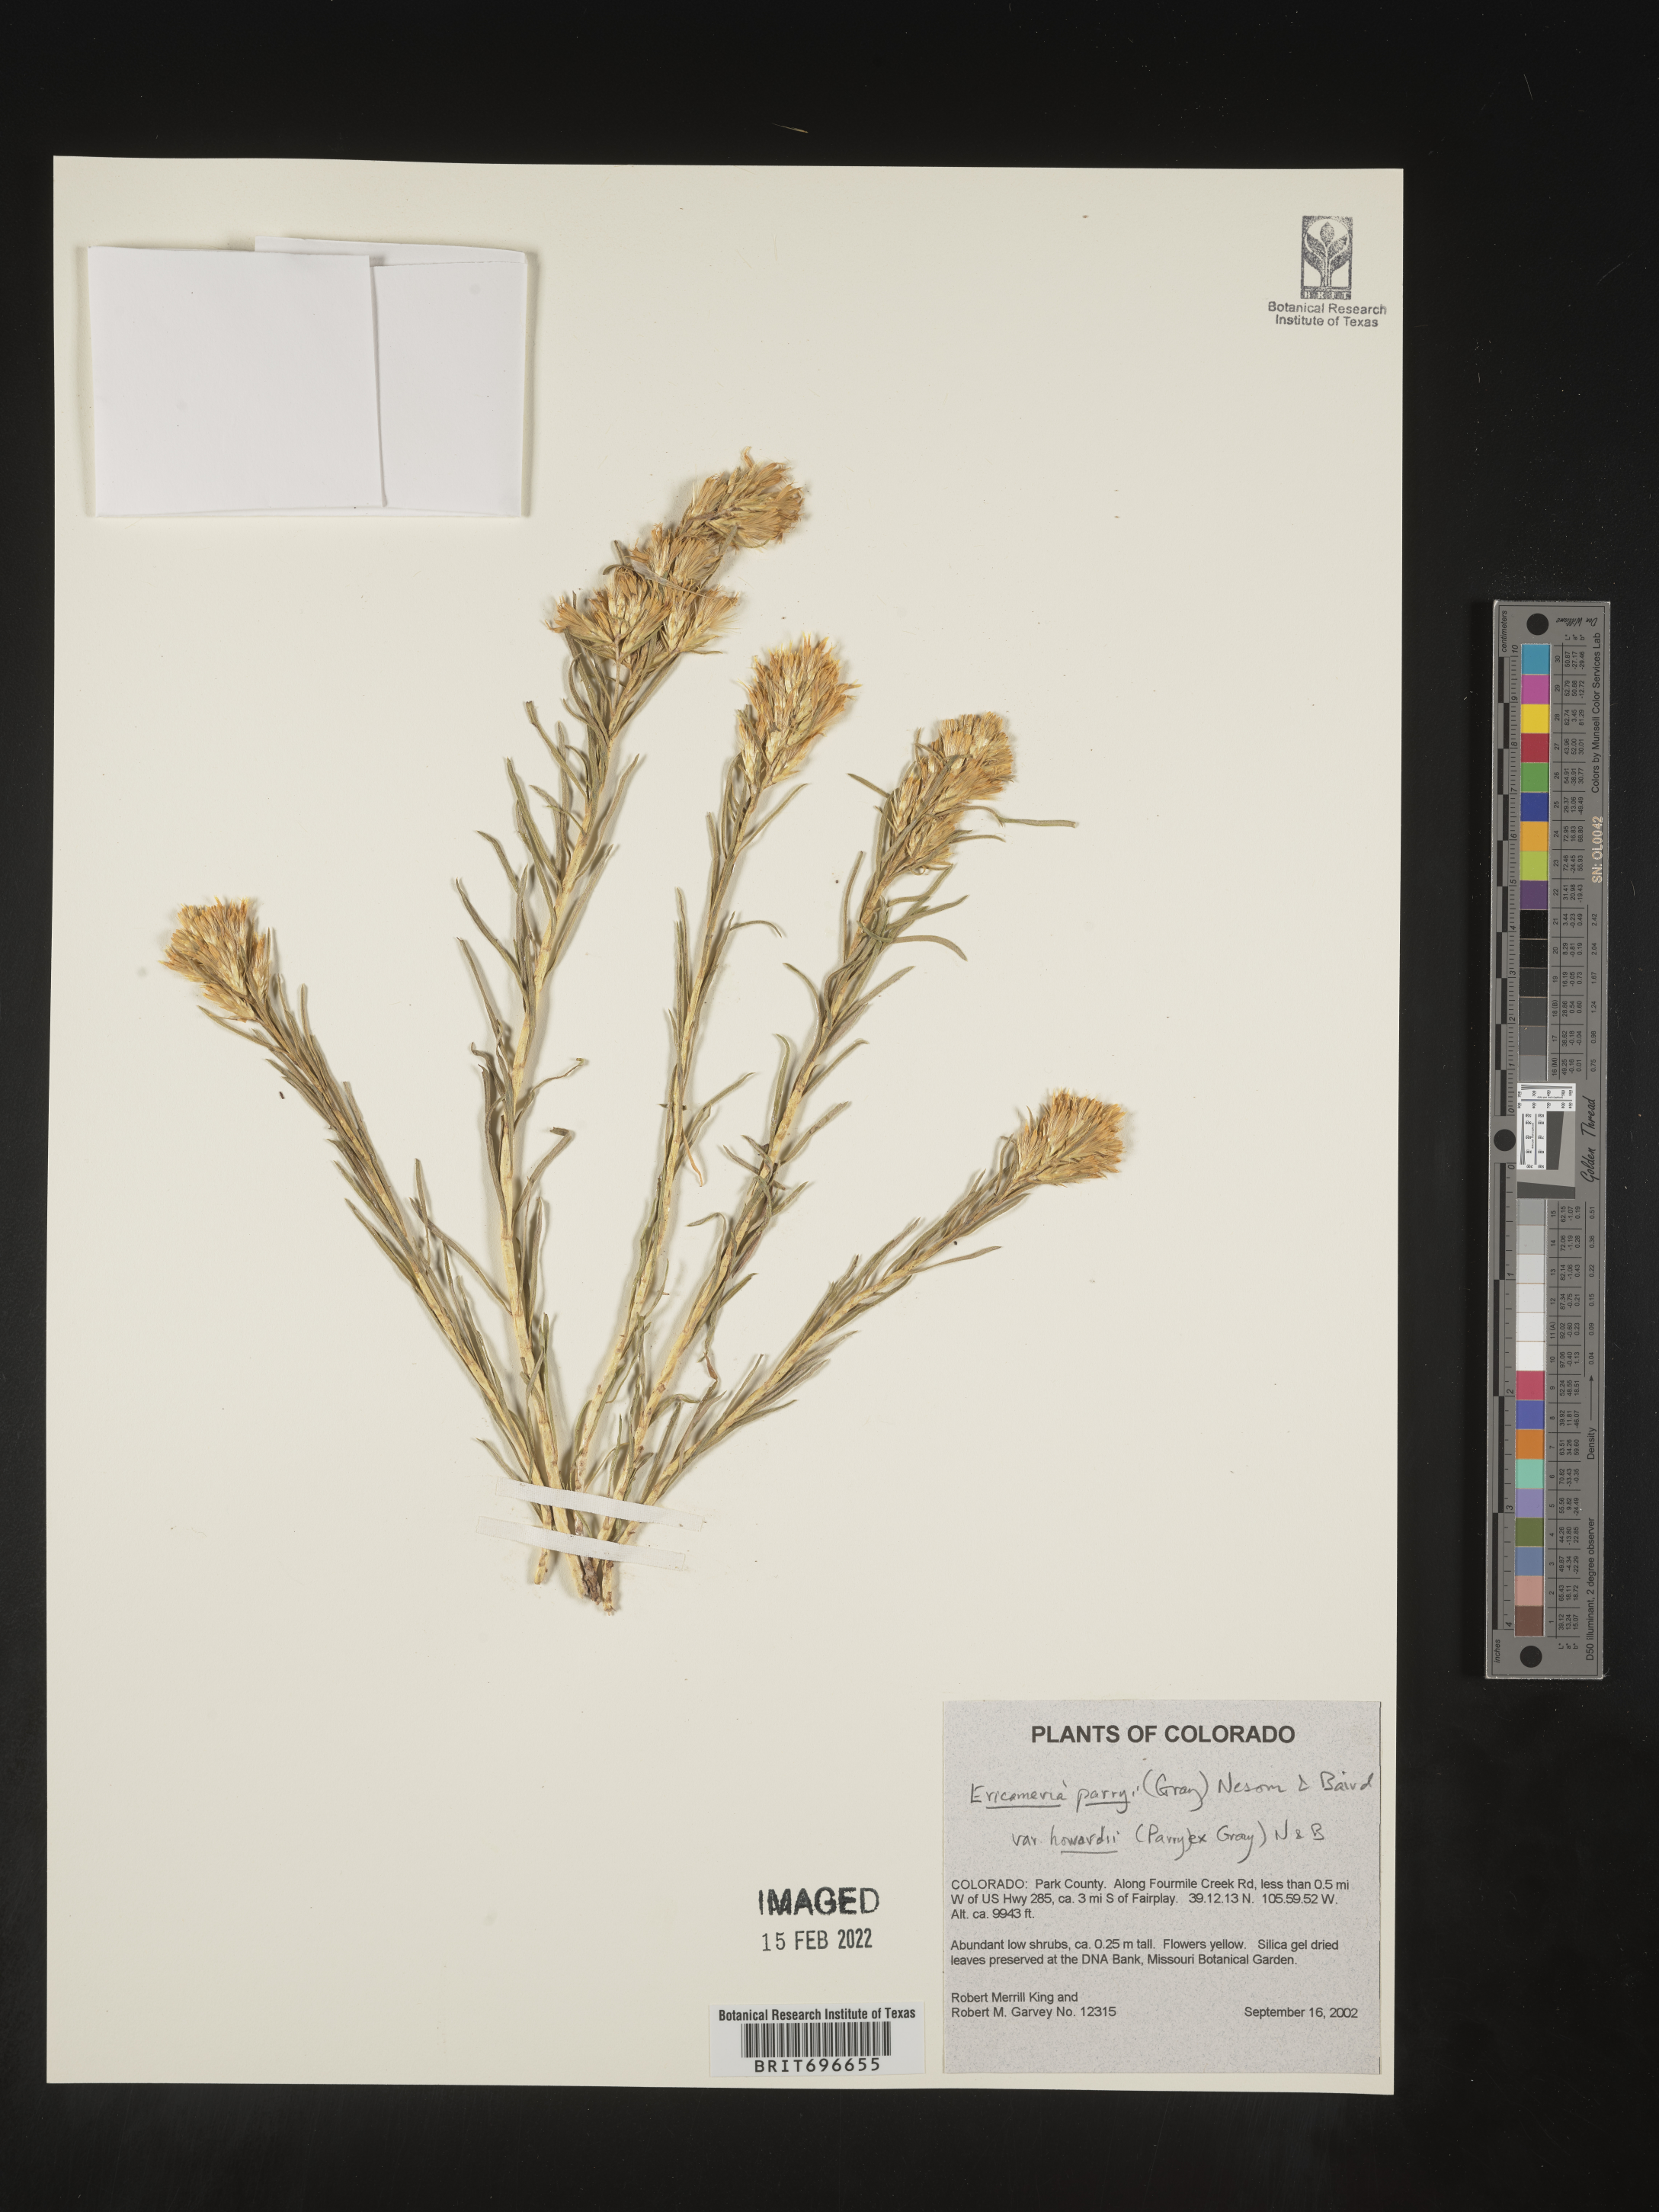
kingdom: Plantae
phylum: Tracheophyta
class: Magnoliopsida
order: Asterales
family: Asteraceae
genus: Ericameria
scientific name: Ericameria parryi
